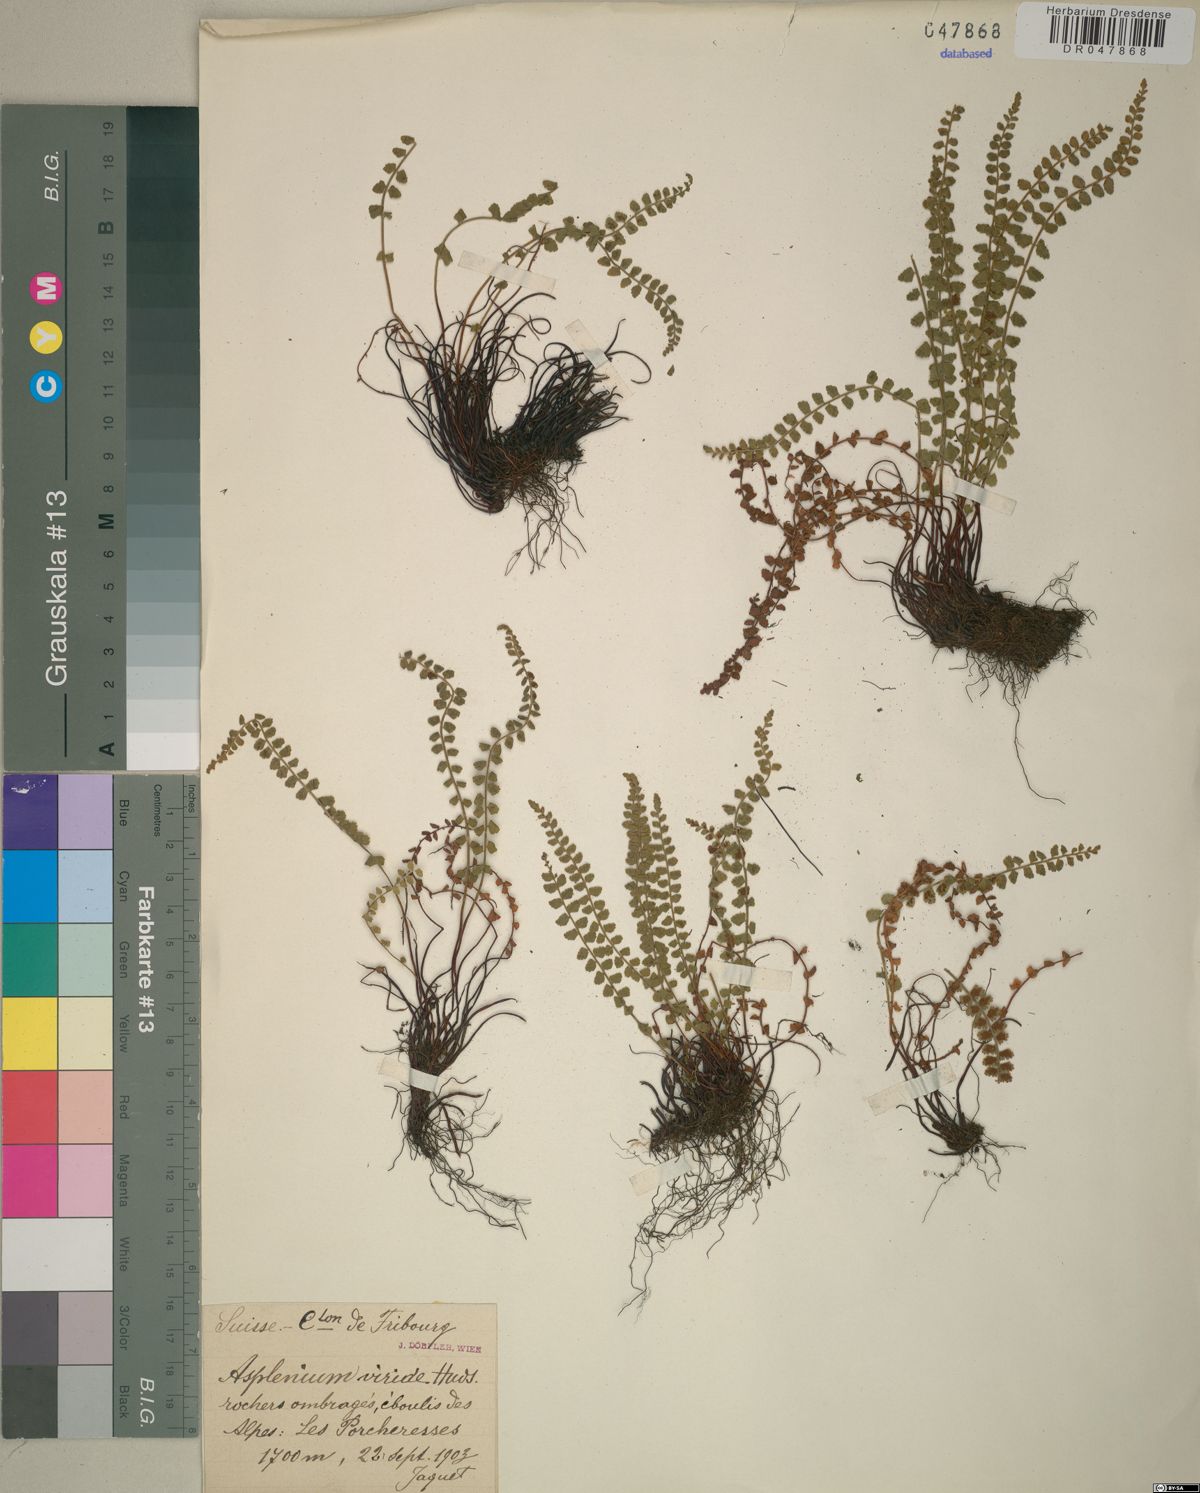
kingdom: Plantae
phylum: Tracheophyta
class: Polypodiopsida
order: Polypodiales
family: Aspleniaceae
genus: Asplenium
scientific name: Asplenium viride
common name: Green spleenwort
